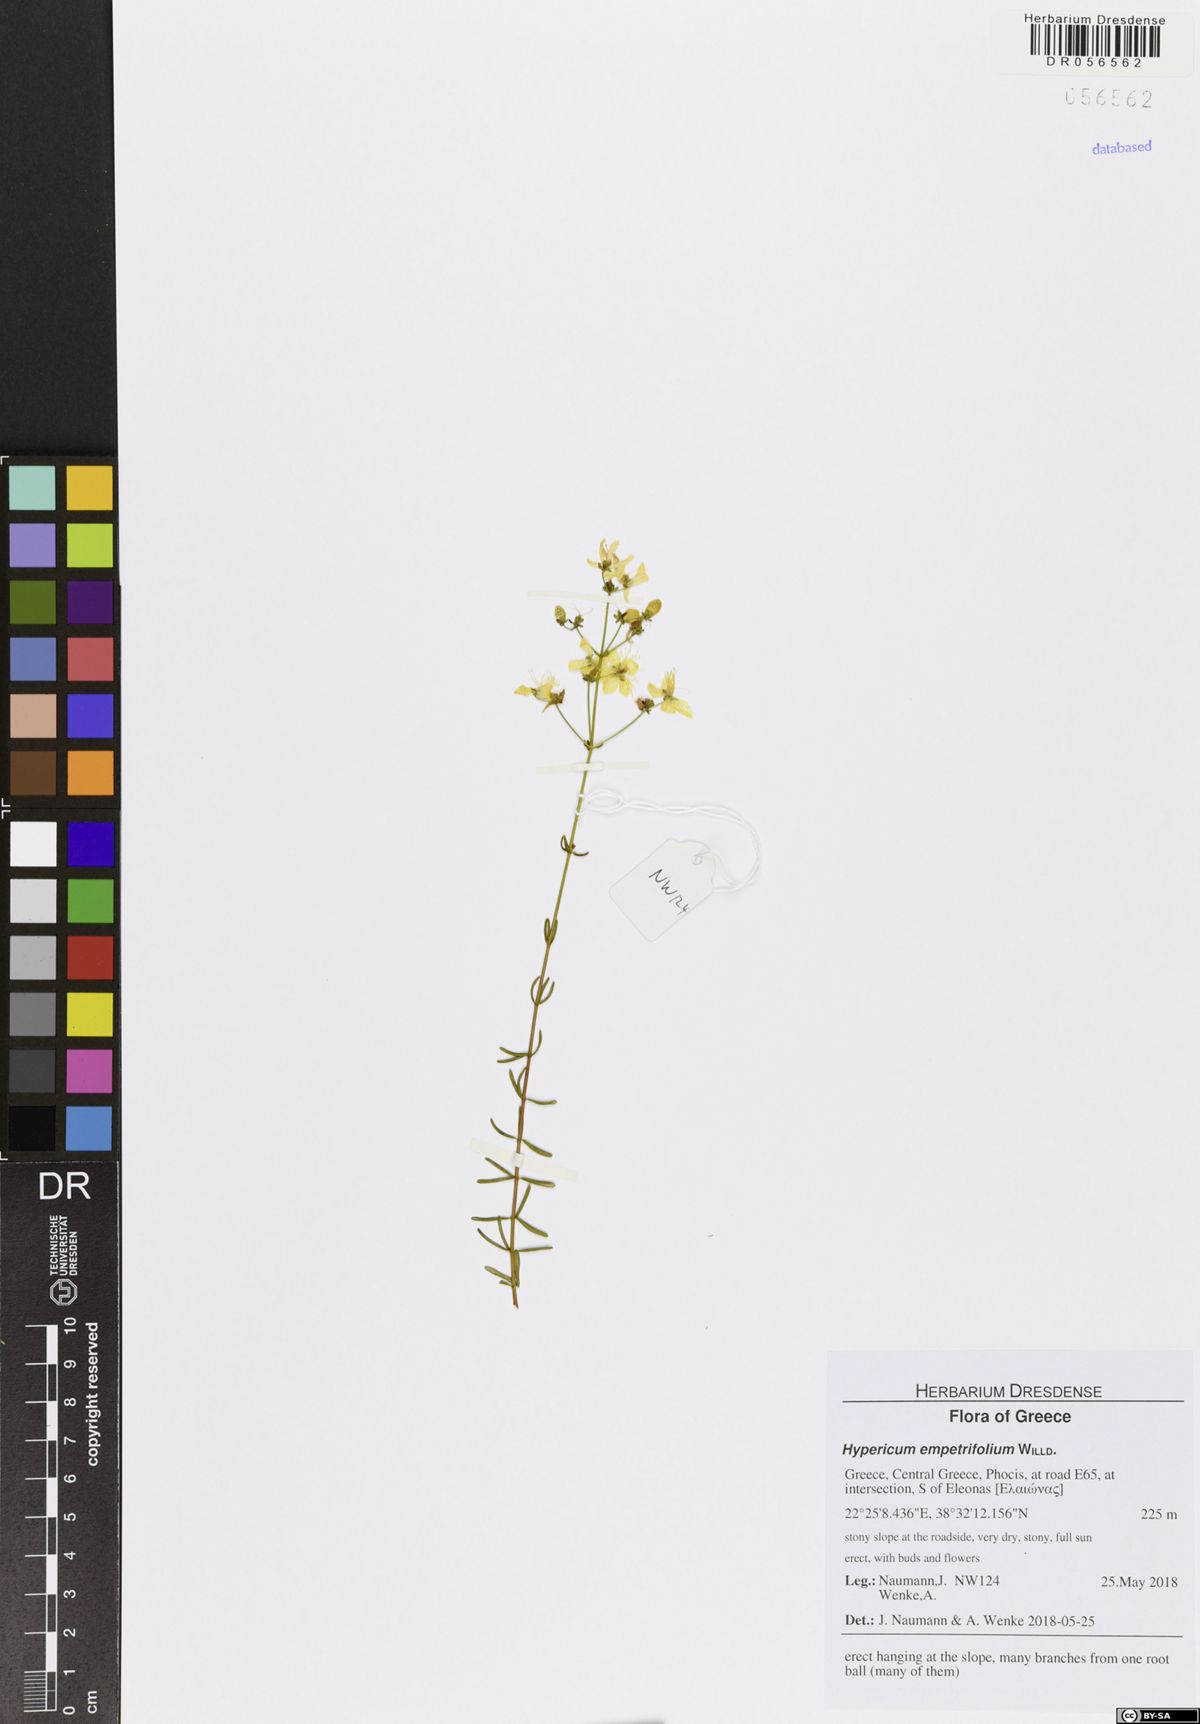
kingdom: Plantae
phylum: Tracheophyta
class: Magnoliopsida
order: Malpighiales
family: Hypericaceae
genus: Hypericum
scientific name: Hypericum empetrifolium
